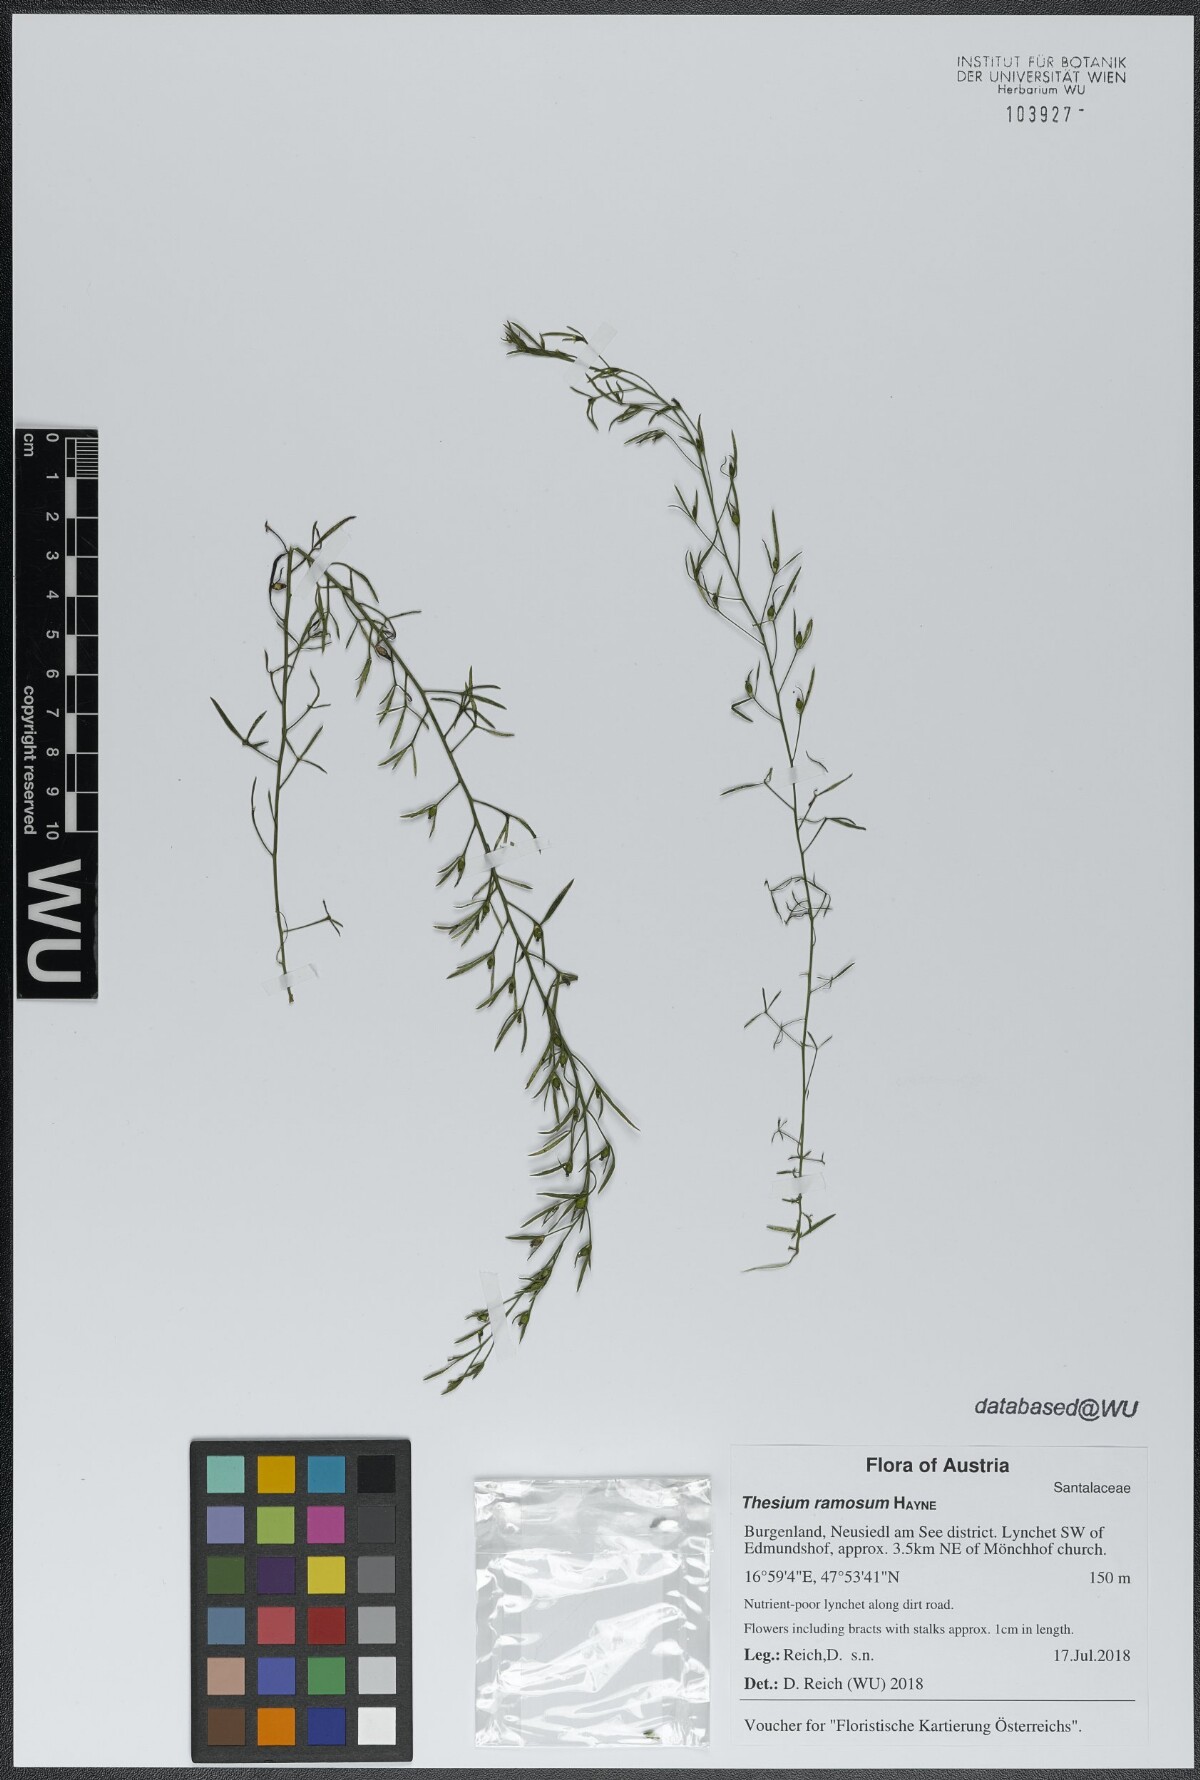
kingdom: Plantae
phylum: Tracheophyta
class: Magnoliopsida
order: Santalales
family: Thesiaceae
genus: Thesium
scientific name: Thesium ramosum
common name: Field thesium
